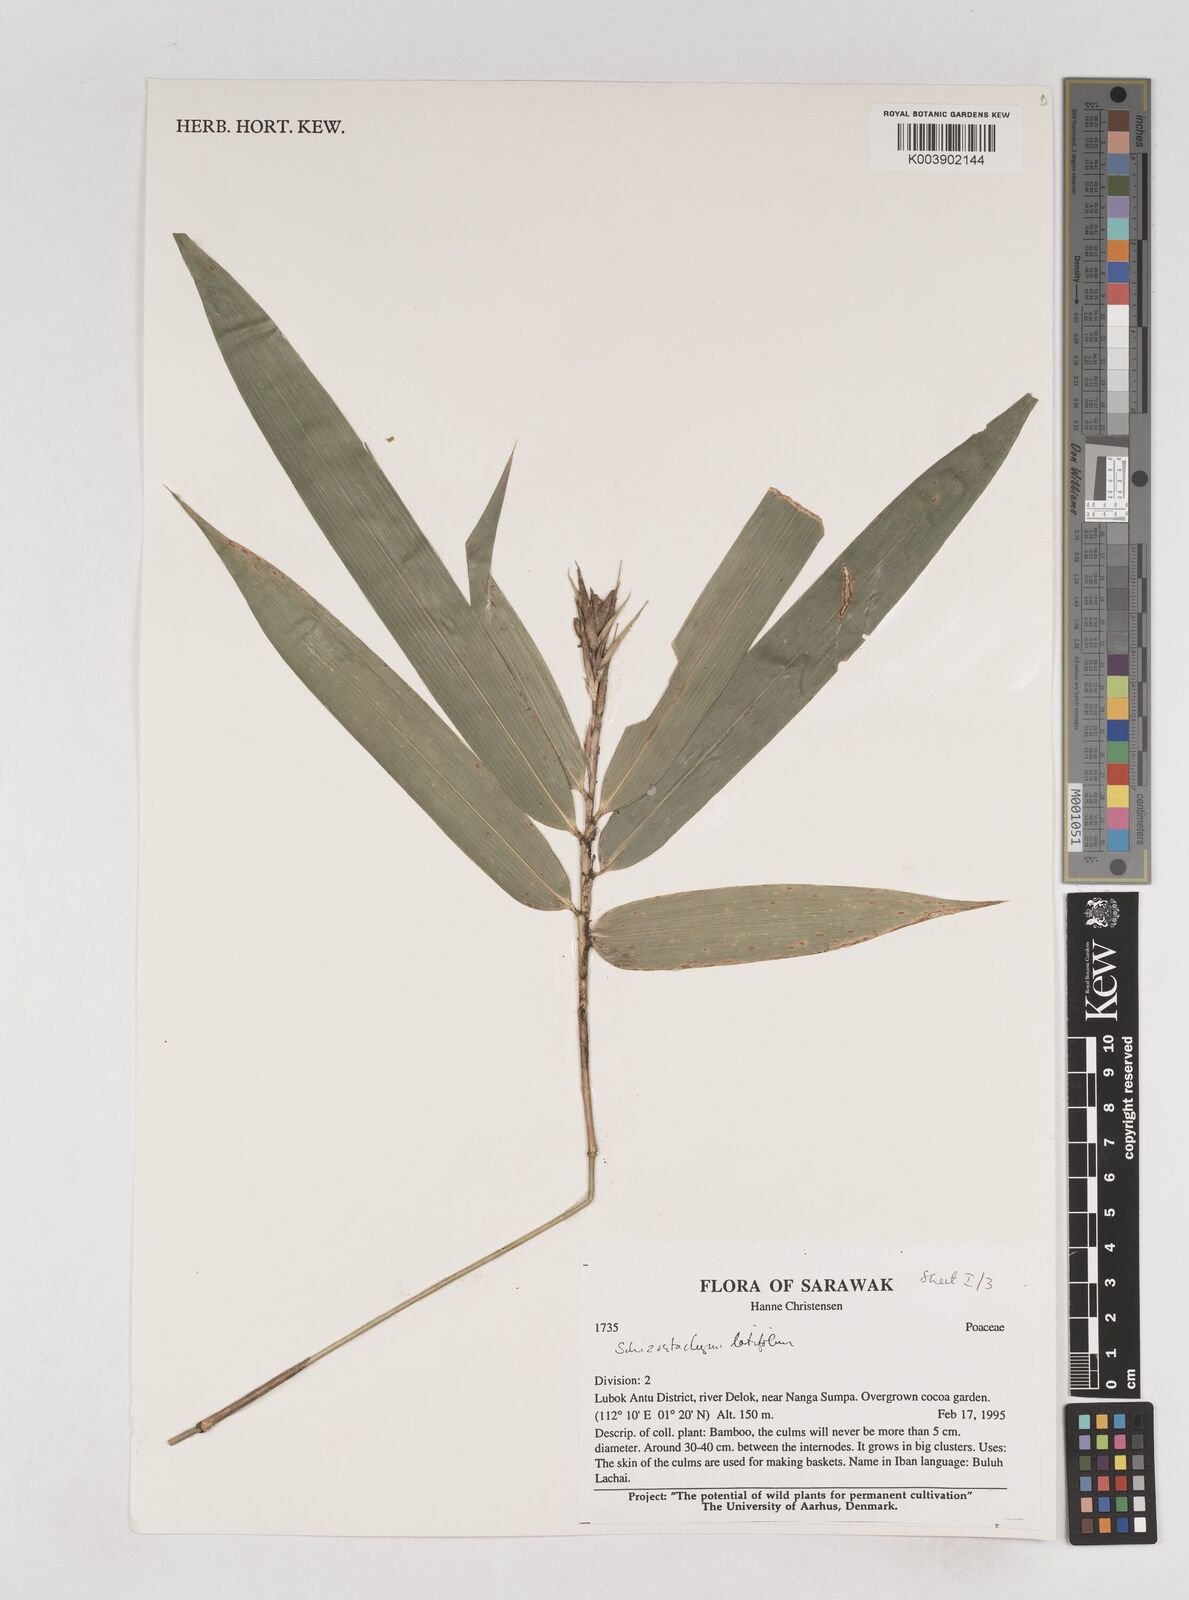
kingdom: Plantae
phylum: Tracheophyta
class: Liliopsida
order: Poales
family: Poaceae
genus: Schizostachyum
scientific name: Schizostachyum
